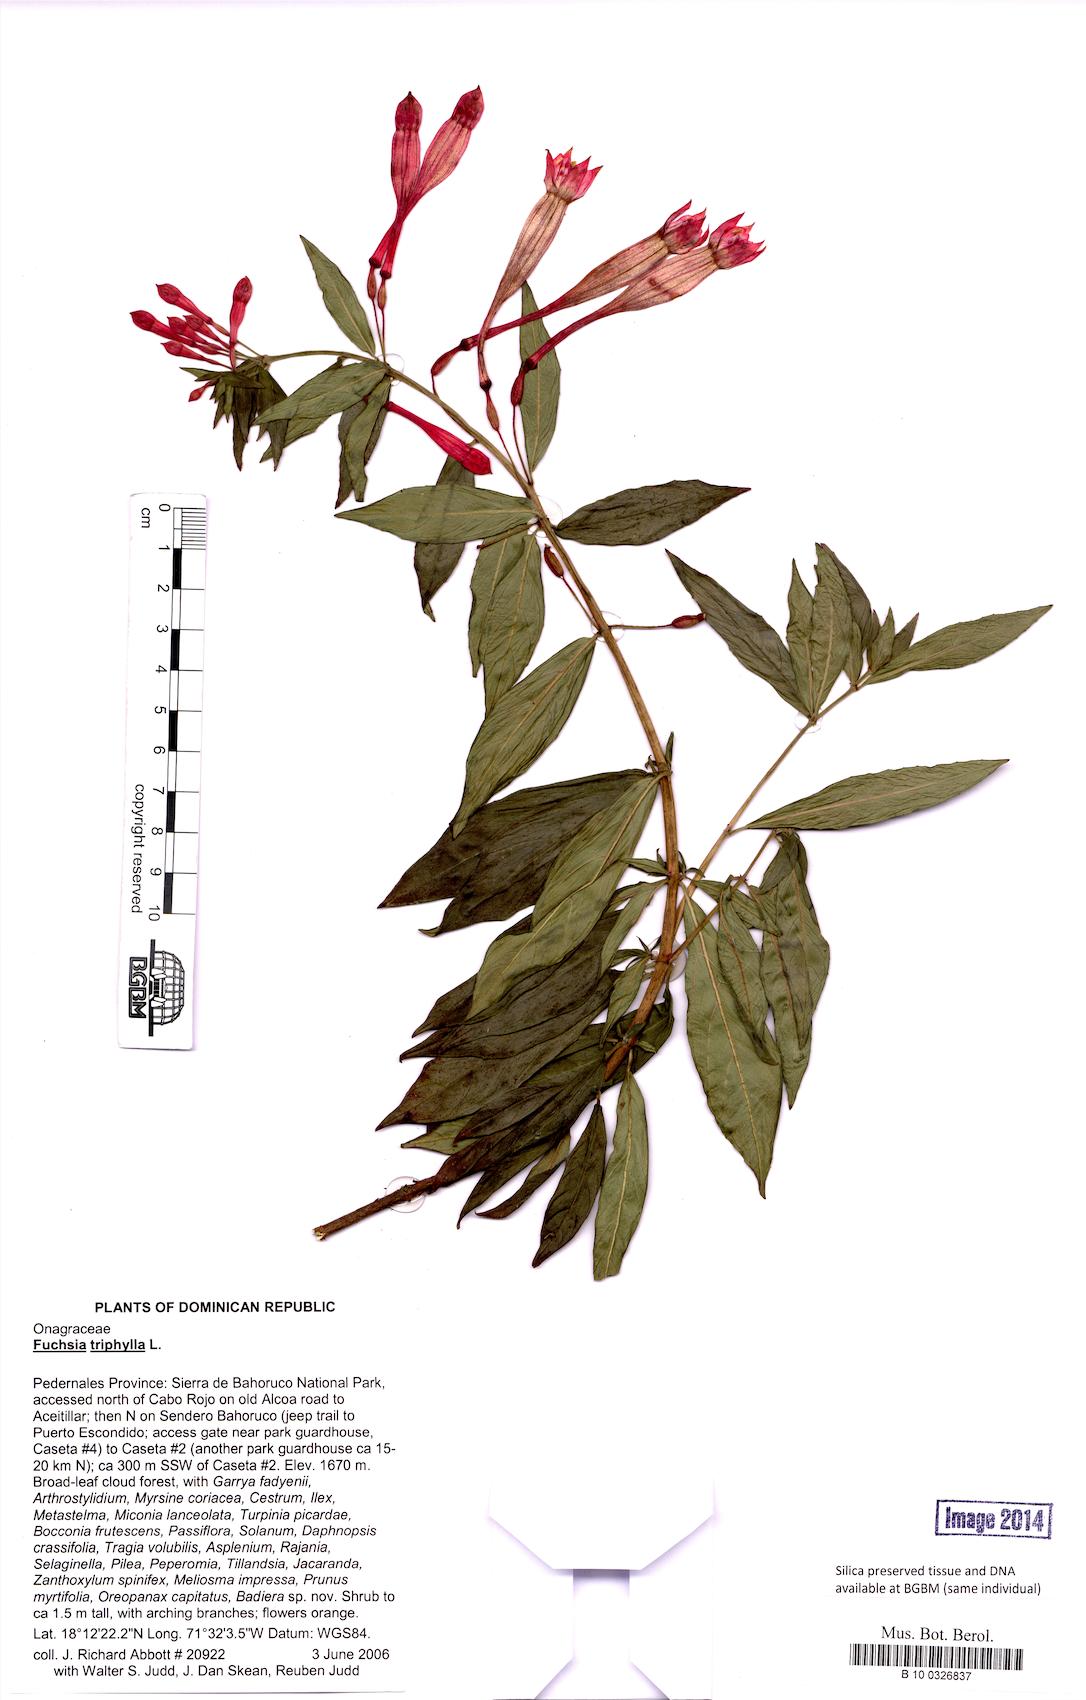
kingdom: Plantae
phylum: Tracheophyta
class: Magnoliopsida
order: Myrtales
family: Onagraceae
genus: Fuchsia
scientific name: Fuchsia triphylla
